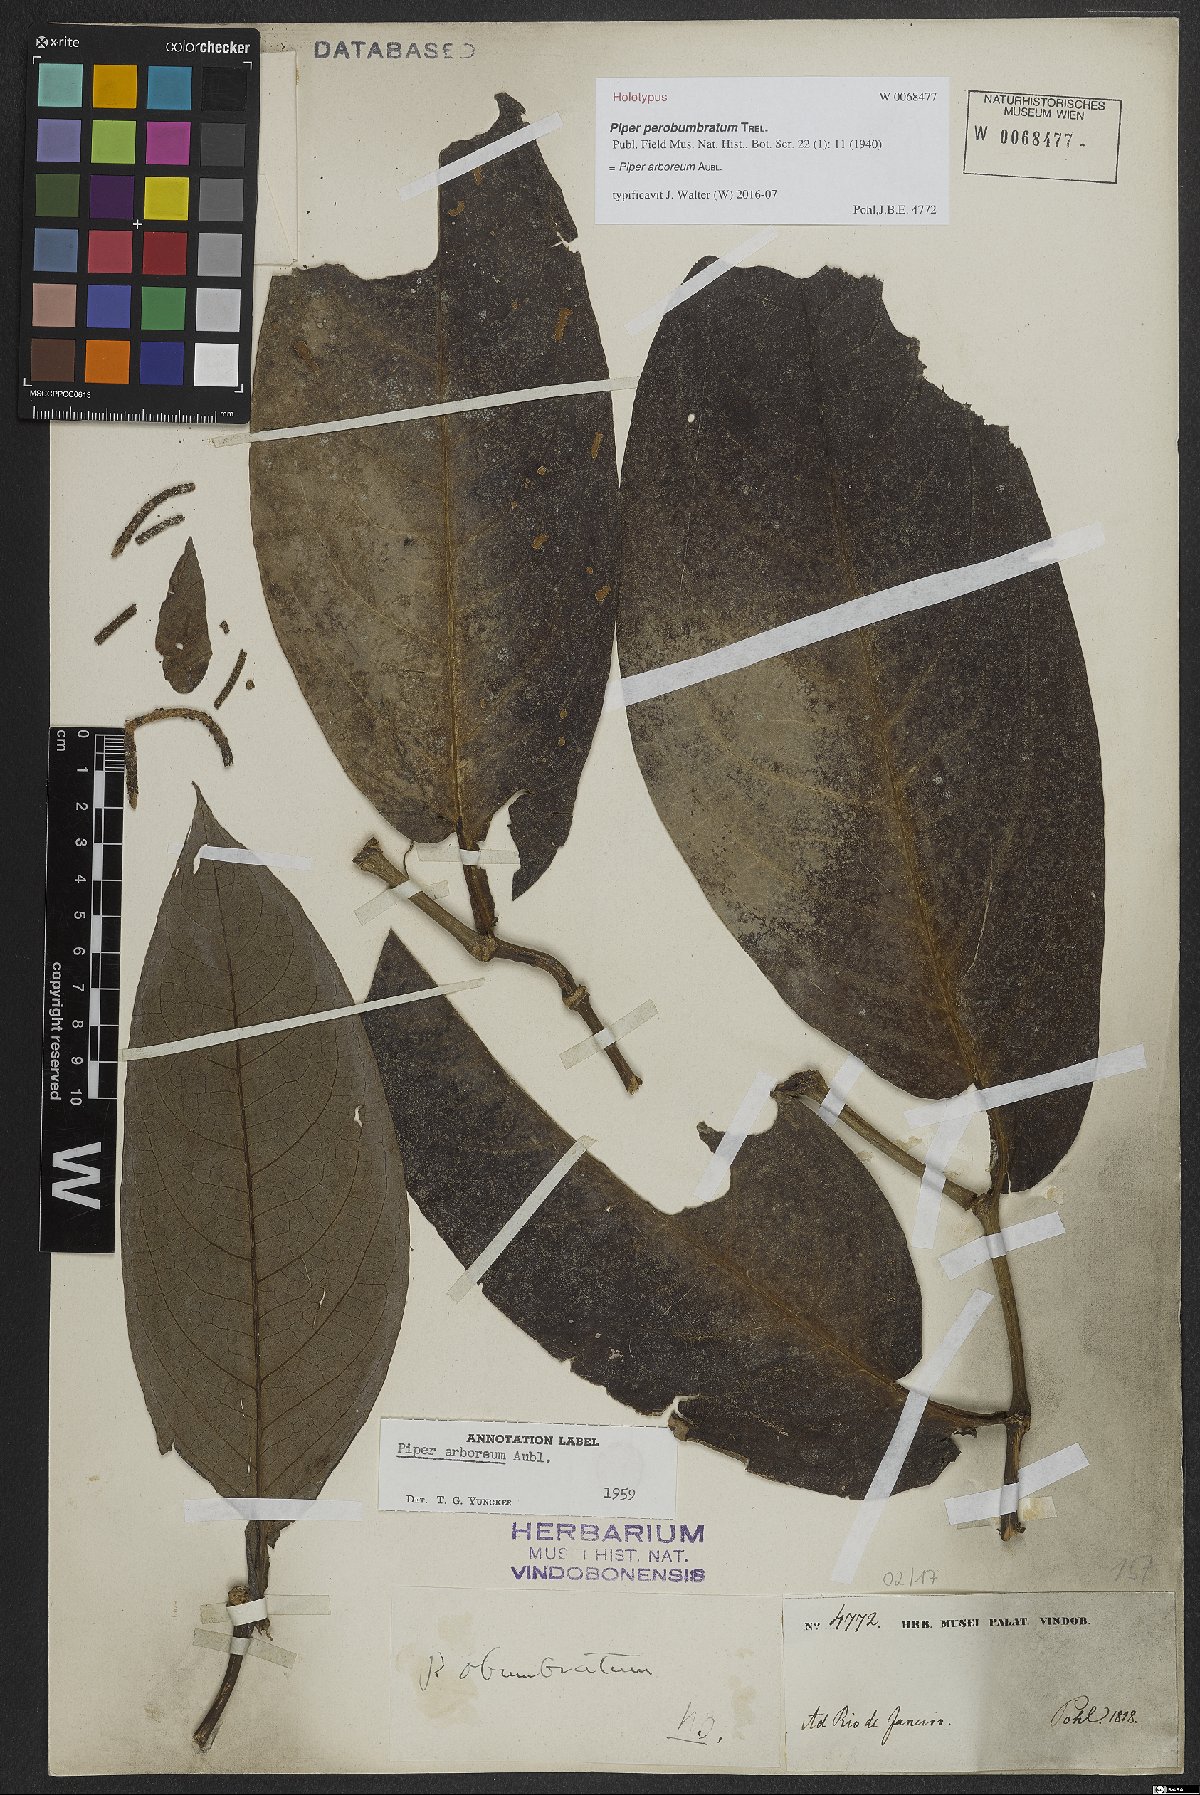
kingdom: Plantae
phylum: Tracheophyta
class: Magnoliopsida
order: Piperales
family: Piperaceae
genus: Piper
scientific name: Piper arboreum
